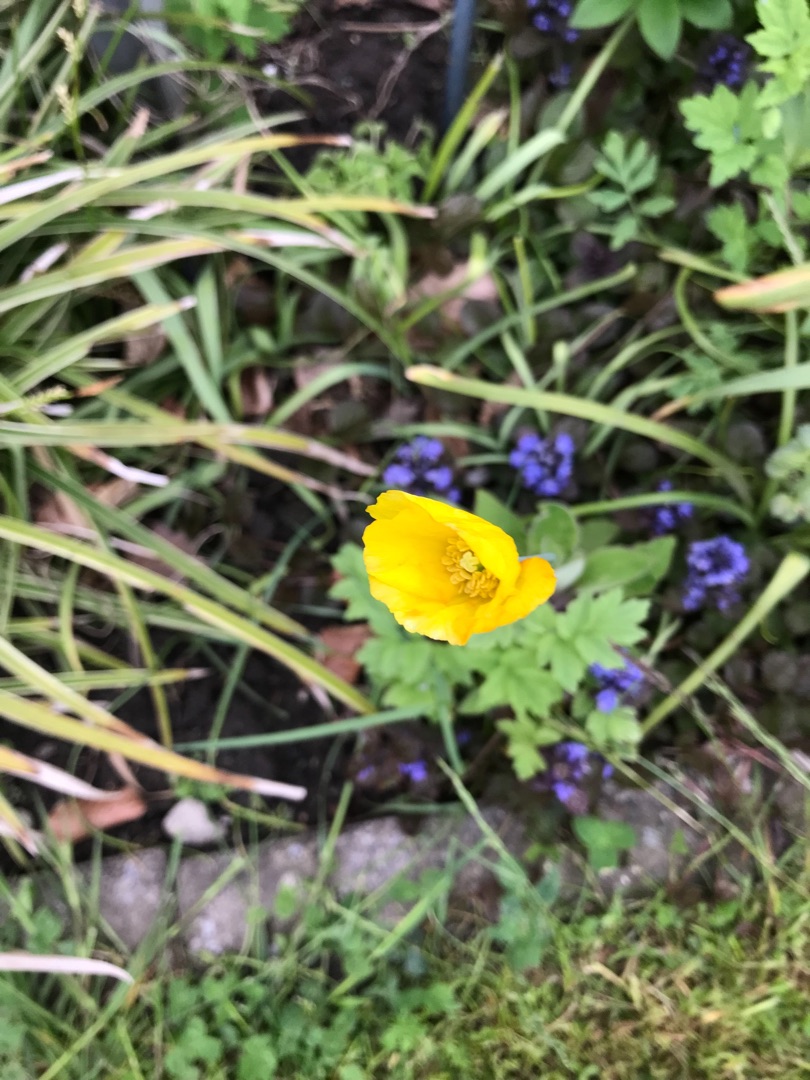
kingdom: Plantae
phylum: Tracheophyta
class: Magnoliopsida
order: Ranunculales
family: Papaveraceae
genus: Papaver
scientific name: Papaver cambricum
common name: Skov-valmue
